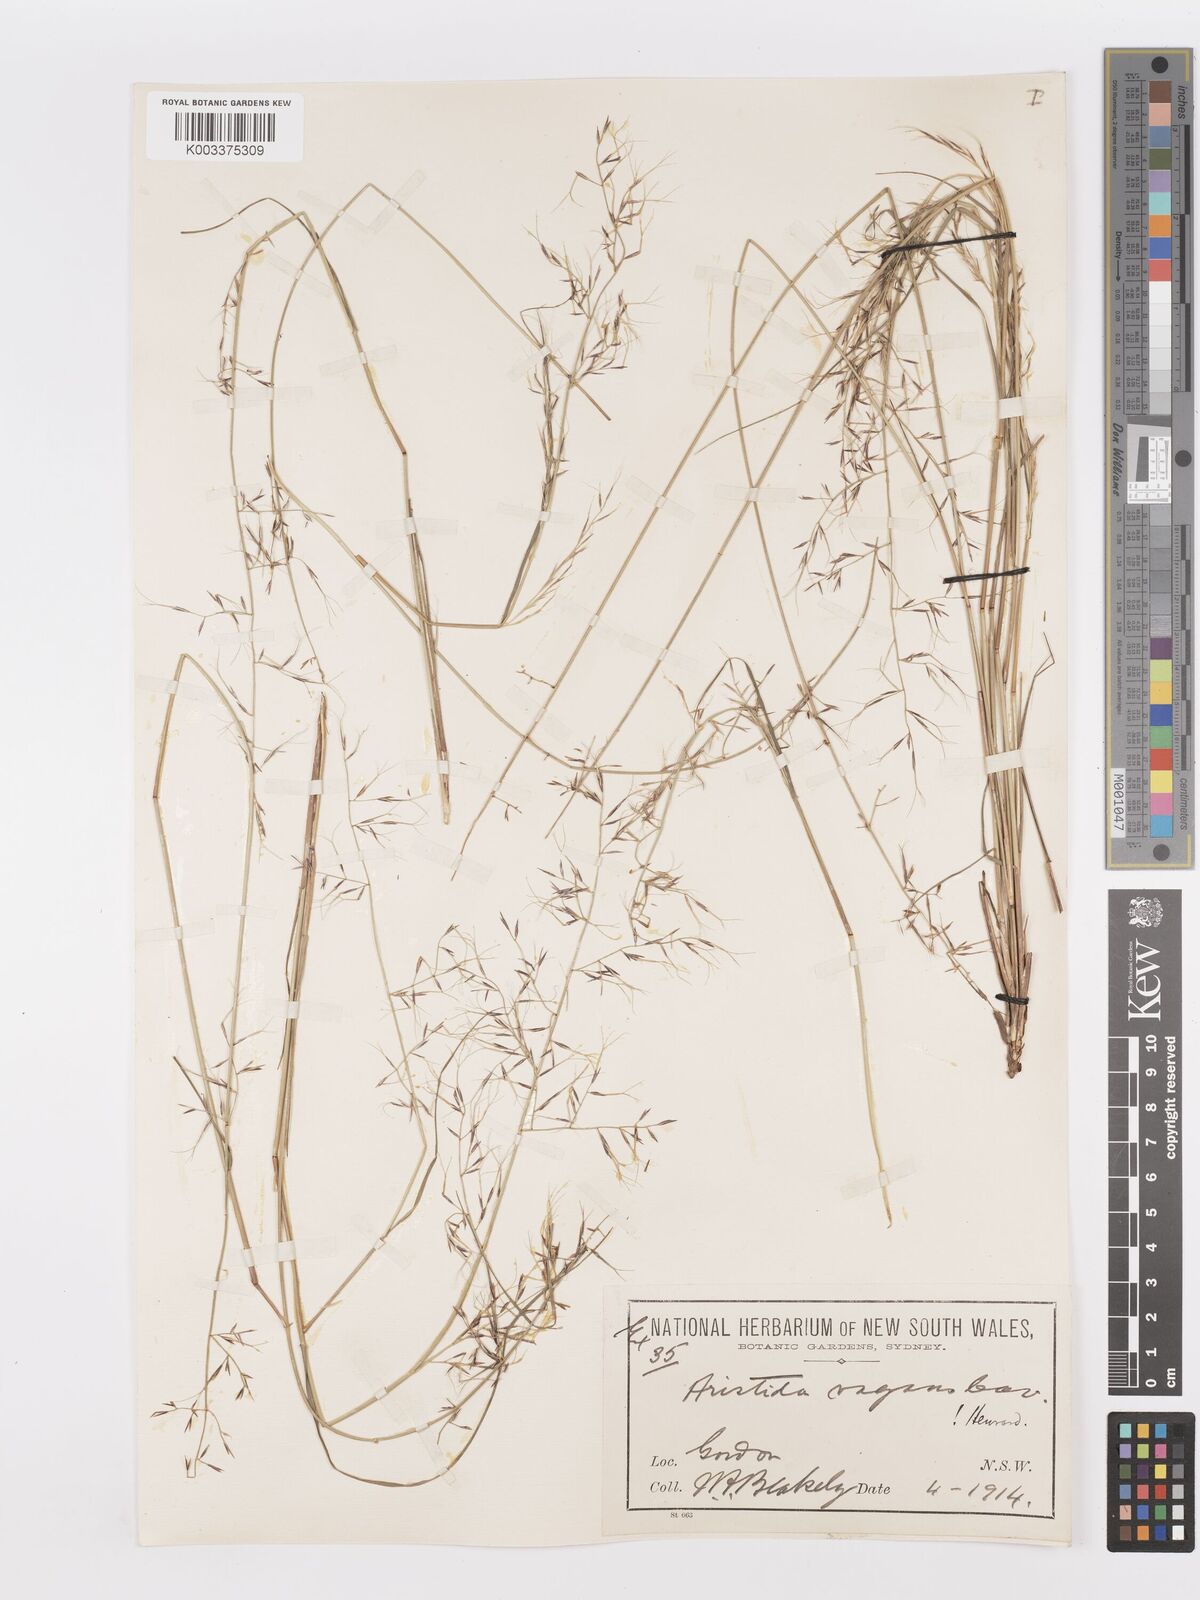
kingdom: Plantae
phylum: Tracheophyta
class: Liliopsida
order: Poales
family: Poaceae
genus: Aristida
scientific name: Aristida vagans
